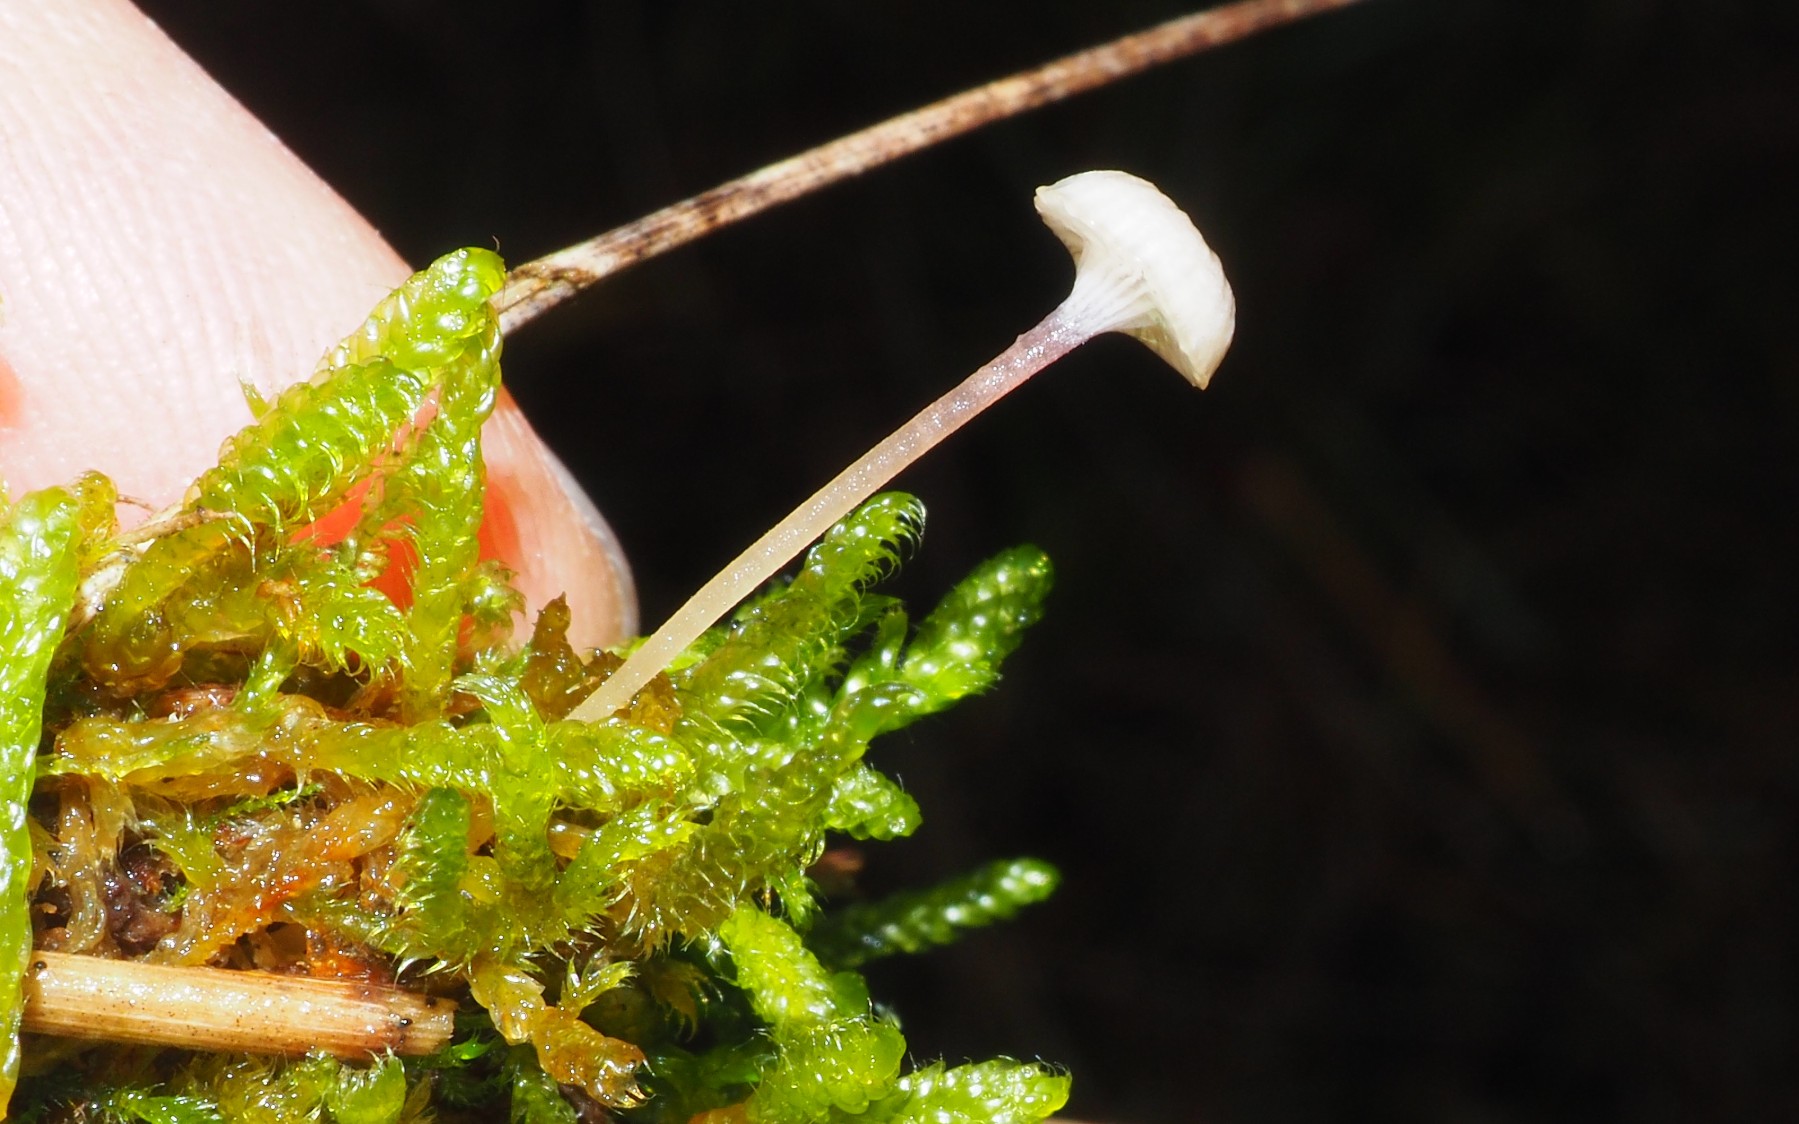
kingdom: Fungi
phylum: Basidiomycota
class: Agaricomycetes
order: Hymenochaetales
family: Rickenellaceae
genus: Rickenella
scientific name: Rickenella swartzii
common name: finstokket mosnavlehat
